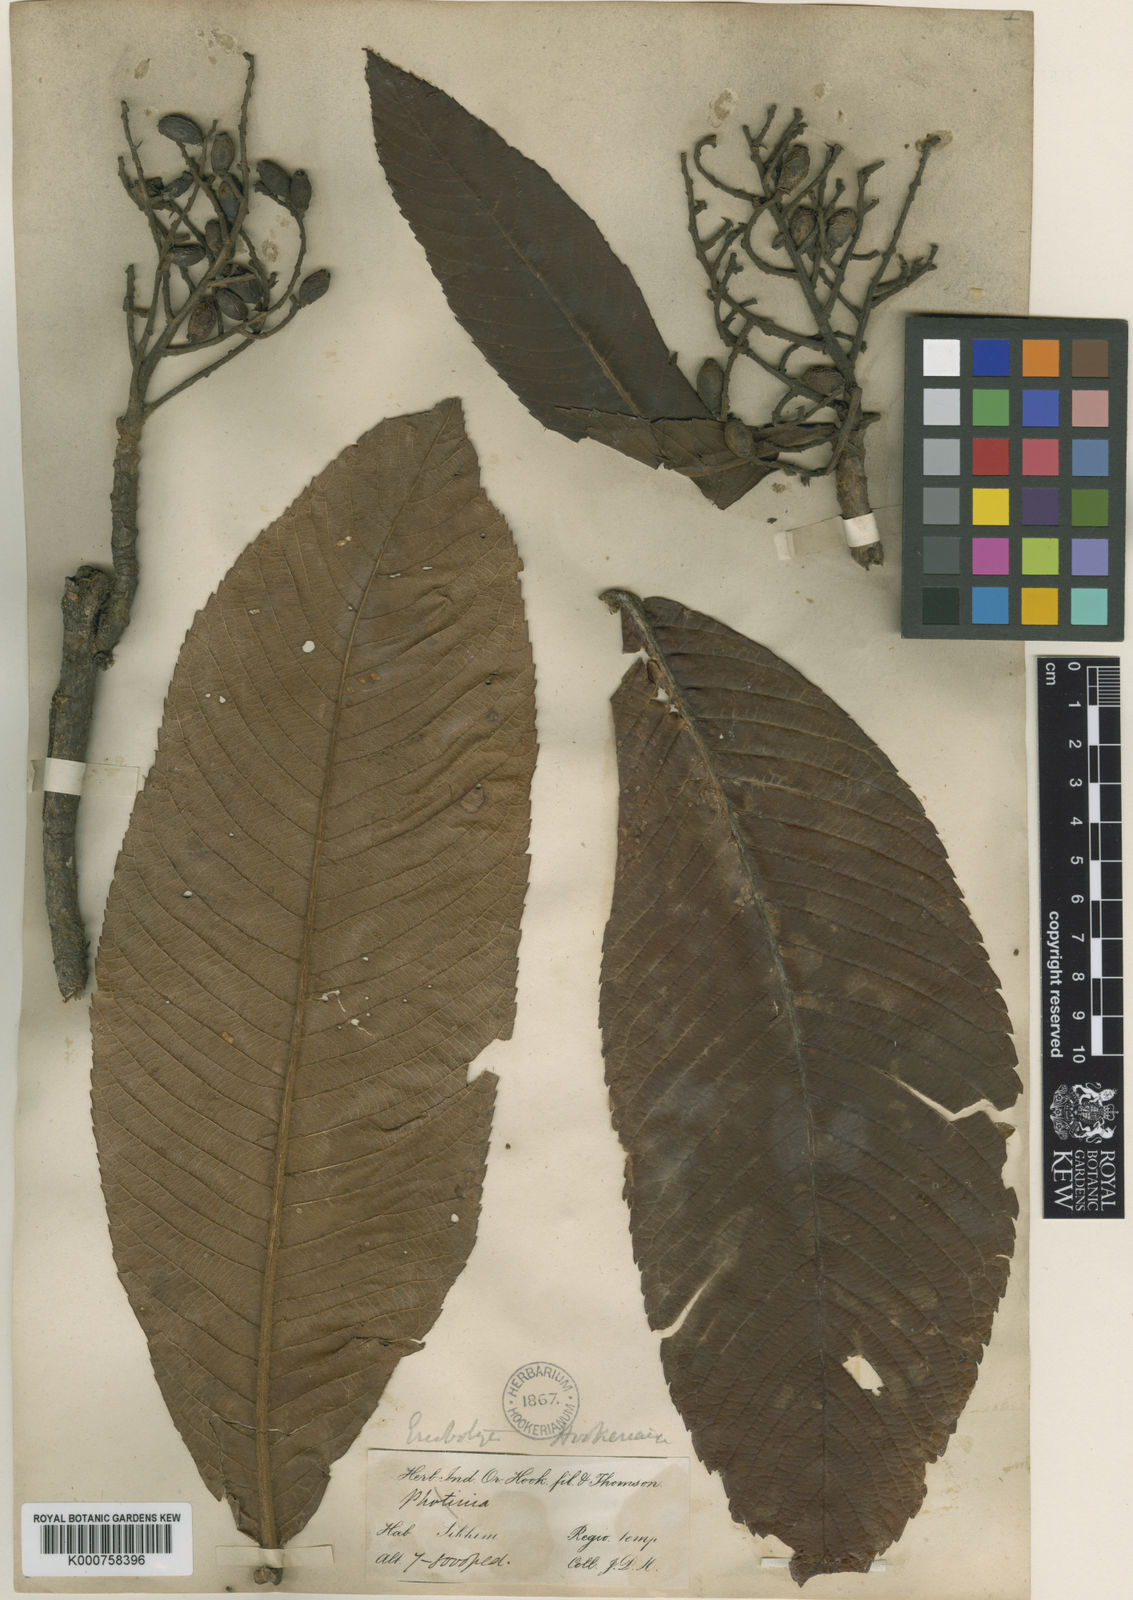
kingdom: Plantae
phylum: Tracheophyta
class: Magnoliopsida
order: Rosales
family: Rosaceae
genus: Rhaphiolepis
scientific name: Rhaphiolepis hookeriana
